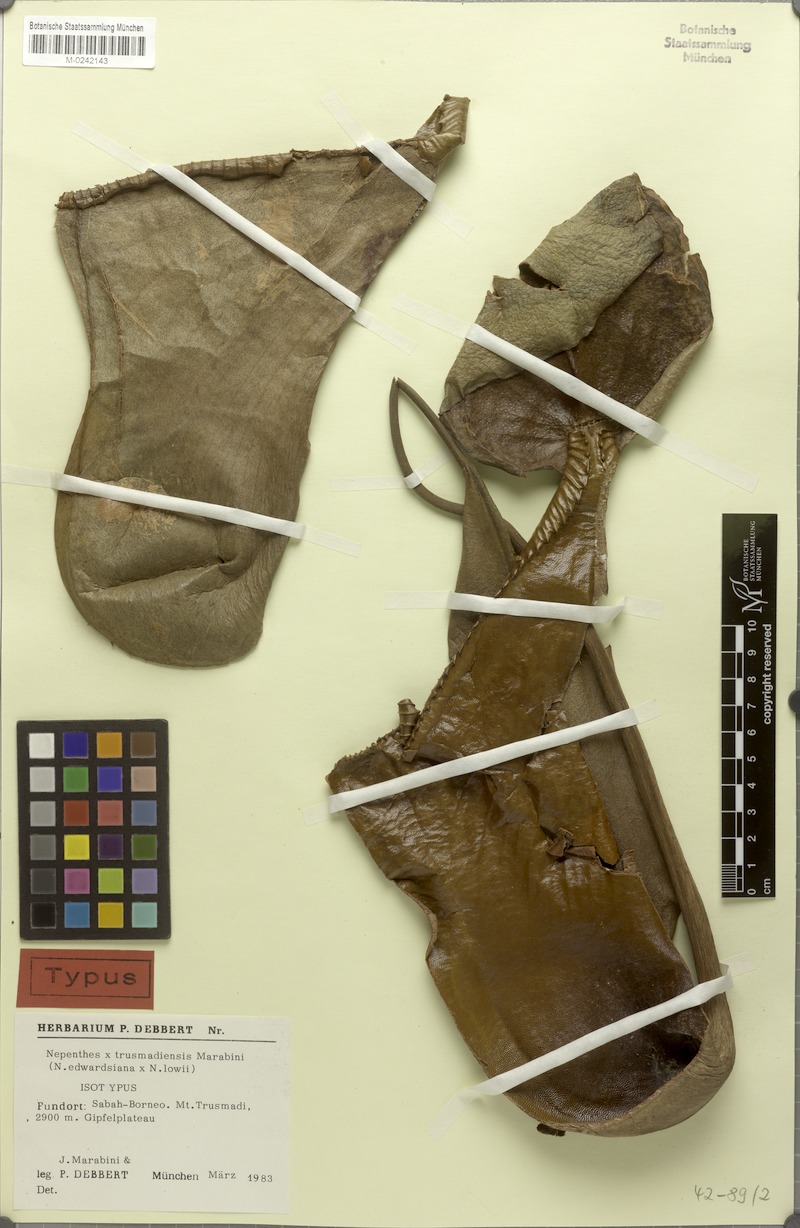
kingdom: Plantae
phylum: Tracheophyta
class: Magnoliopsida
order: Caryophyllales
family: Nepenthaceae
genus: Nepenthes
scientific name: Nepenthes trusmadiensis
